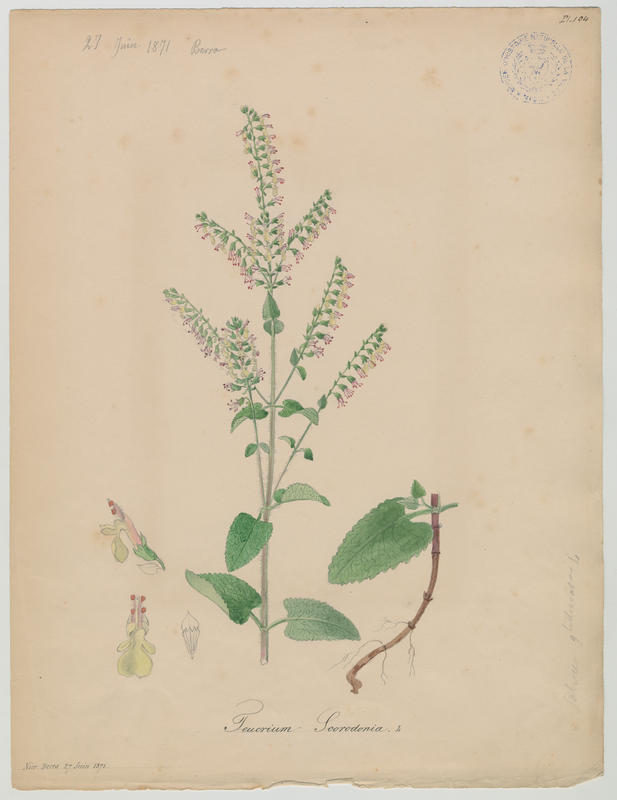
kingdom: Plantae
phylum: Tracheophyta
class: Magnoliopsida
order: Lamiales
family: Lamiaceae
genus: Teucrium
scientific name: Teucrium scorodonia
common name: Woodland germander
